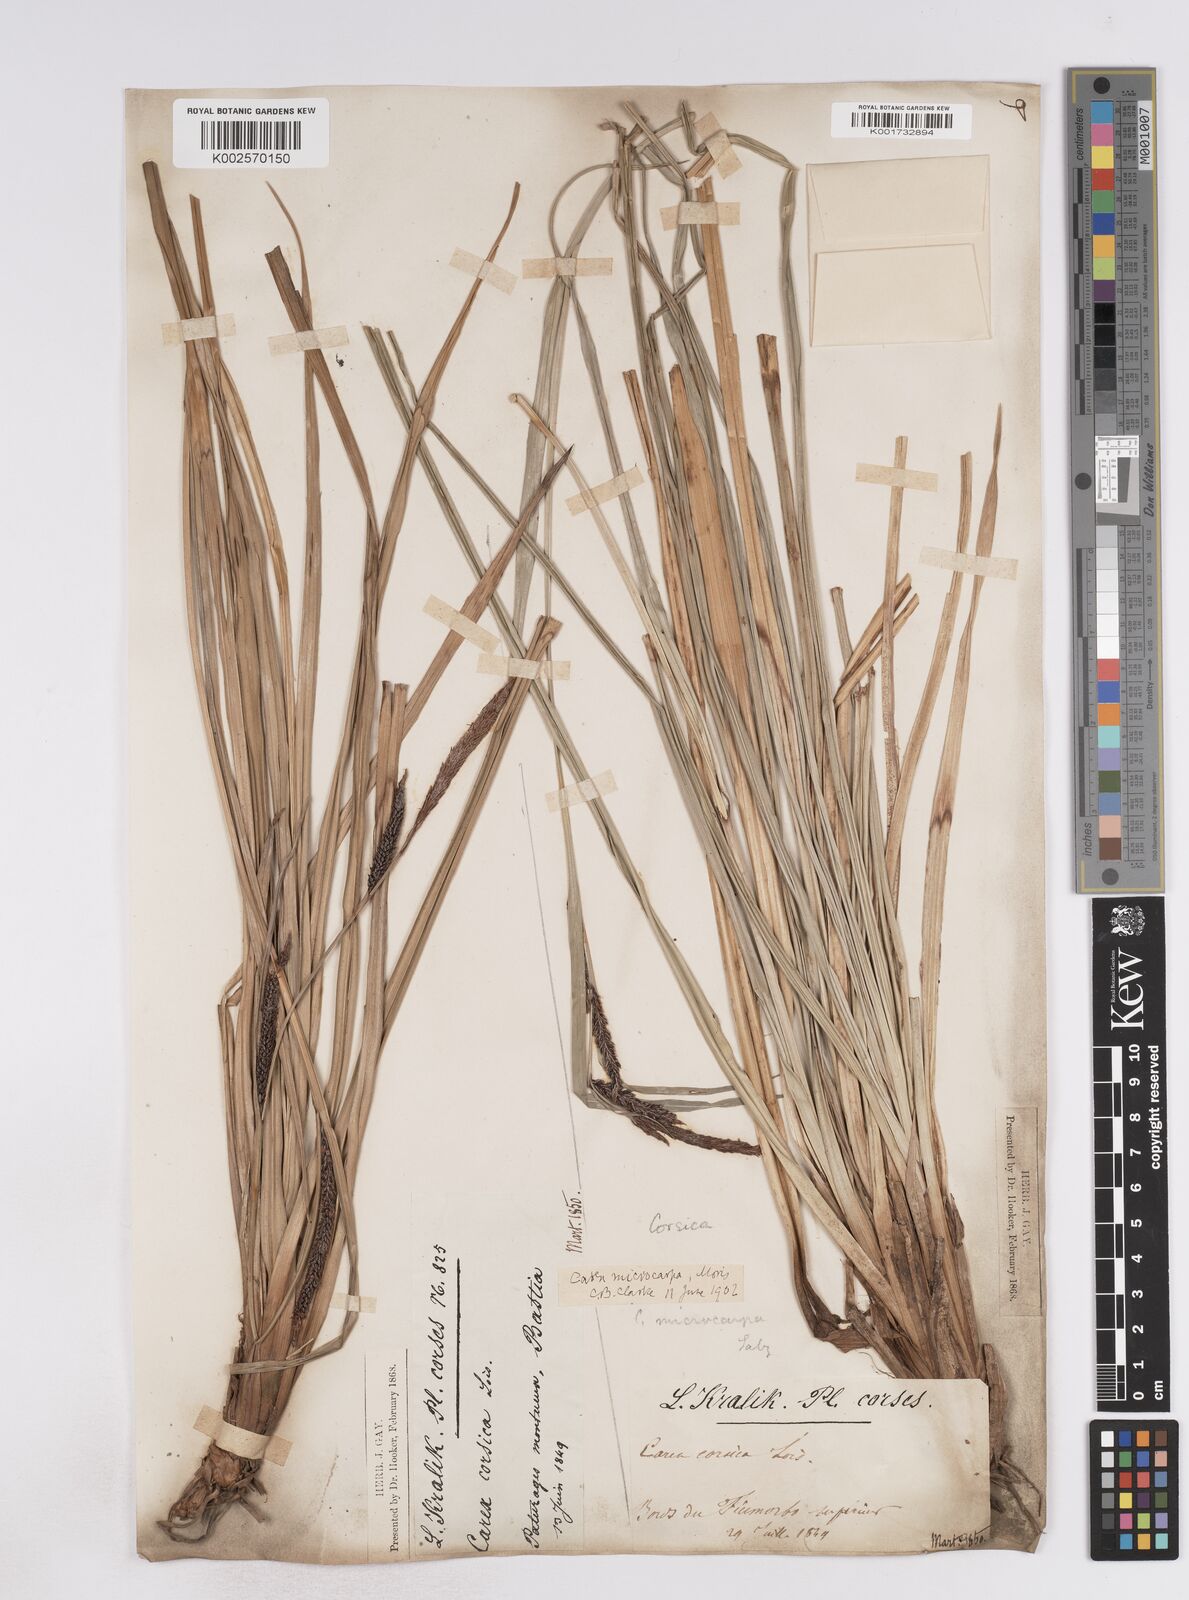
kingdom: Plantae
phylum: Tracheophyta
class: Liliopsida
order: Poales
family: Cyperaceae
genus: Carex
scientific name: Carex microcarpa
